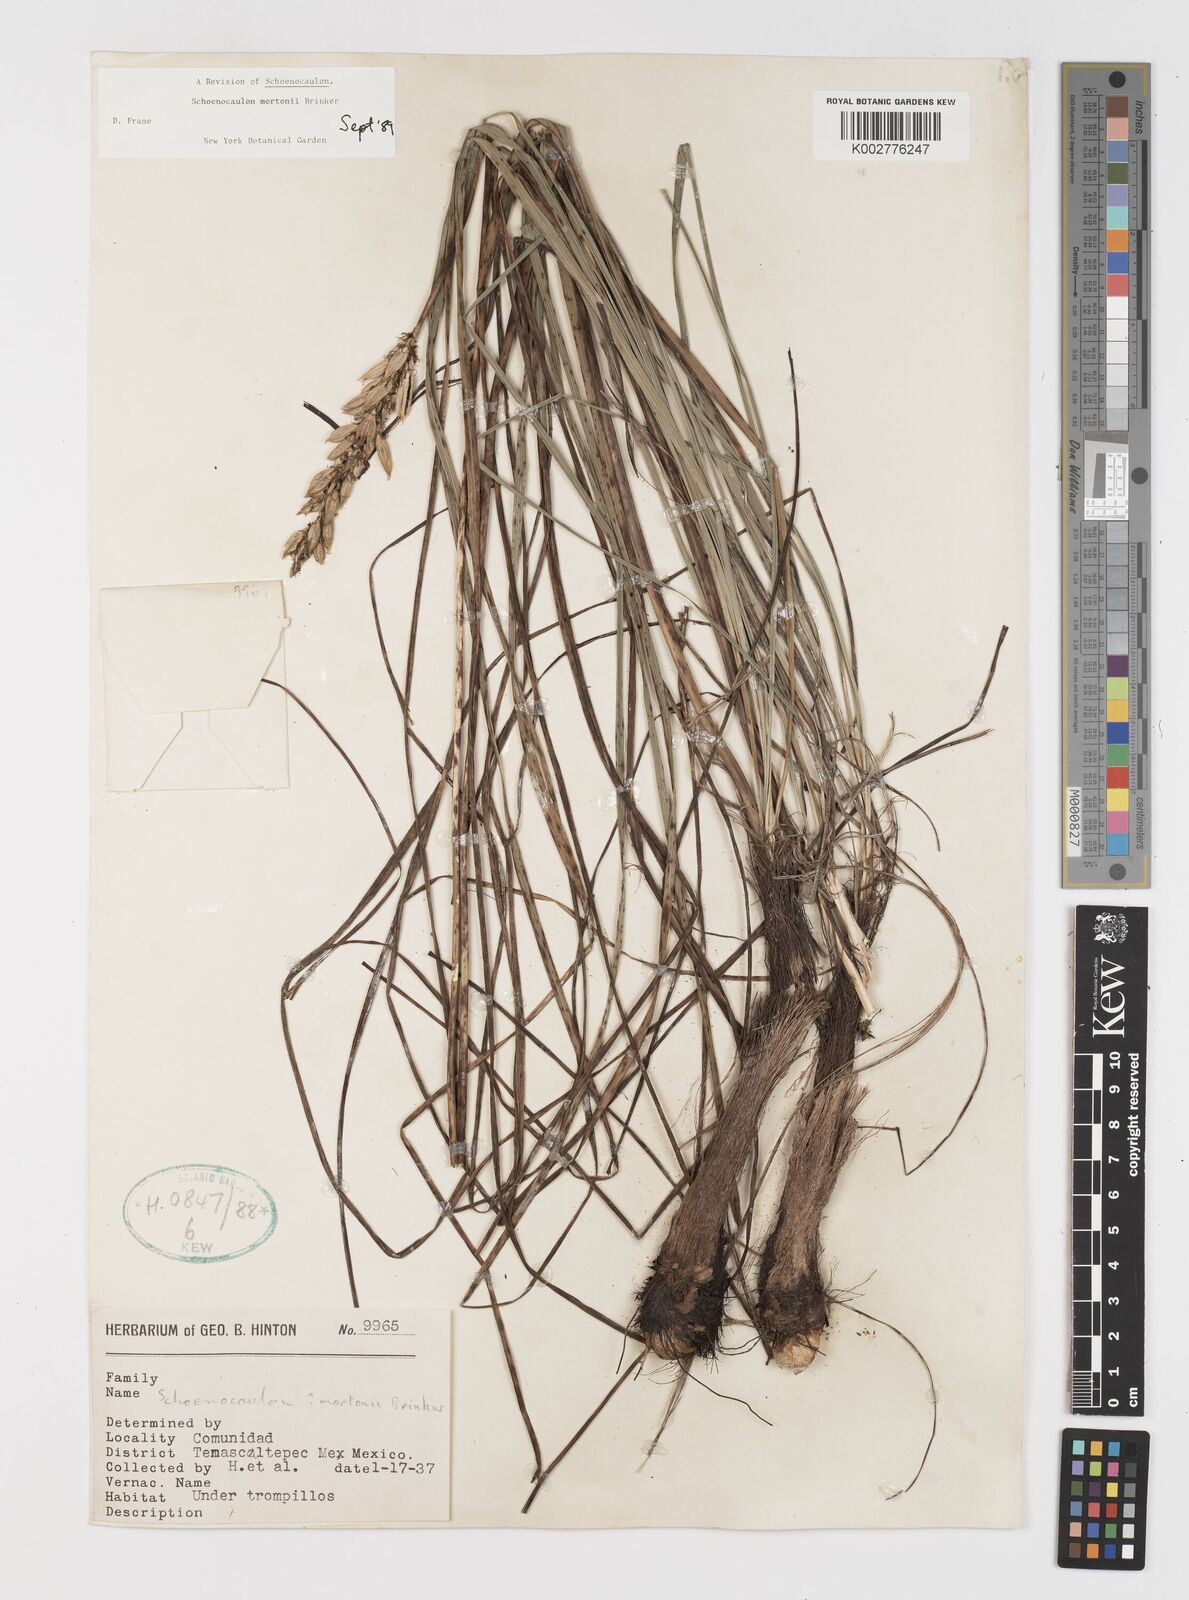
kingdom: Plantae
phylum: Tracheophyta
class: Liliopsida
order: Liliales
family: Melanthiaceae
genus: Schoenocaulon
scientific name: Schoenocaulon mortonii
